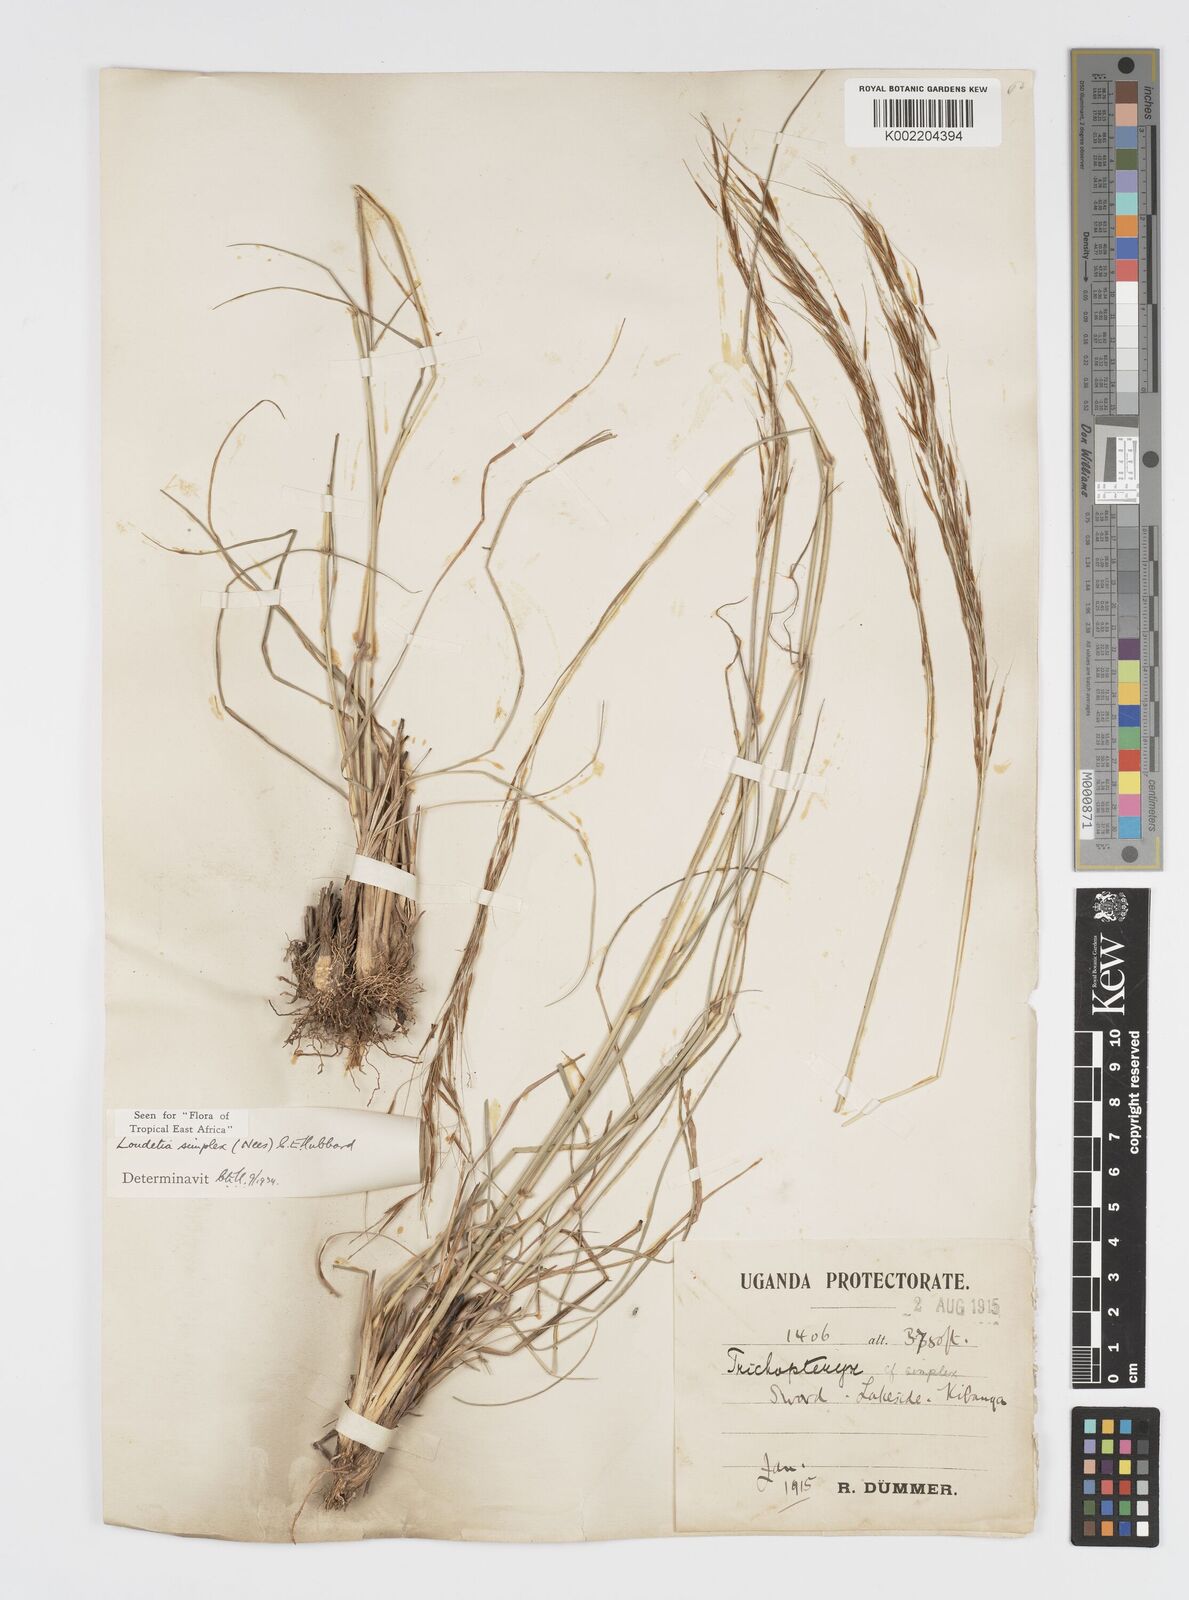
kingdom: Plantae
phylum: Tracheophyta
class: Liliopsida
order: Poales
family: Poaceae
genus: Loudetia
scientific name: Loudetia simplex
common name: Common russet grass
